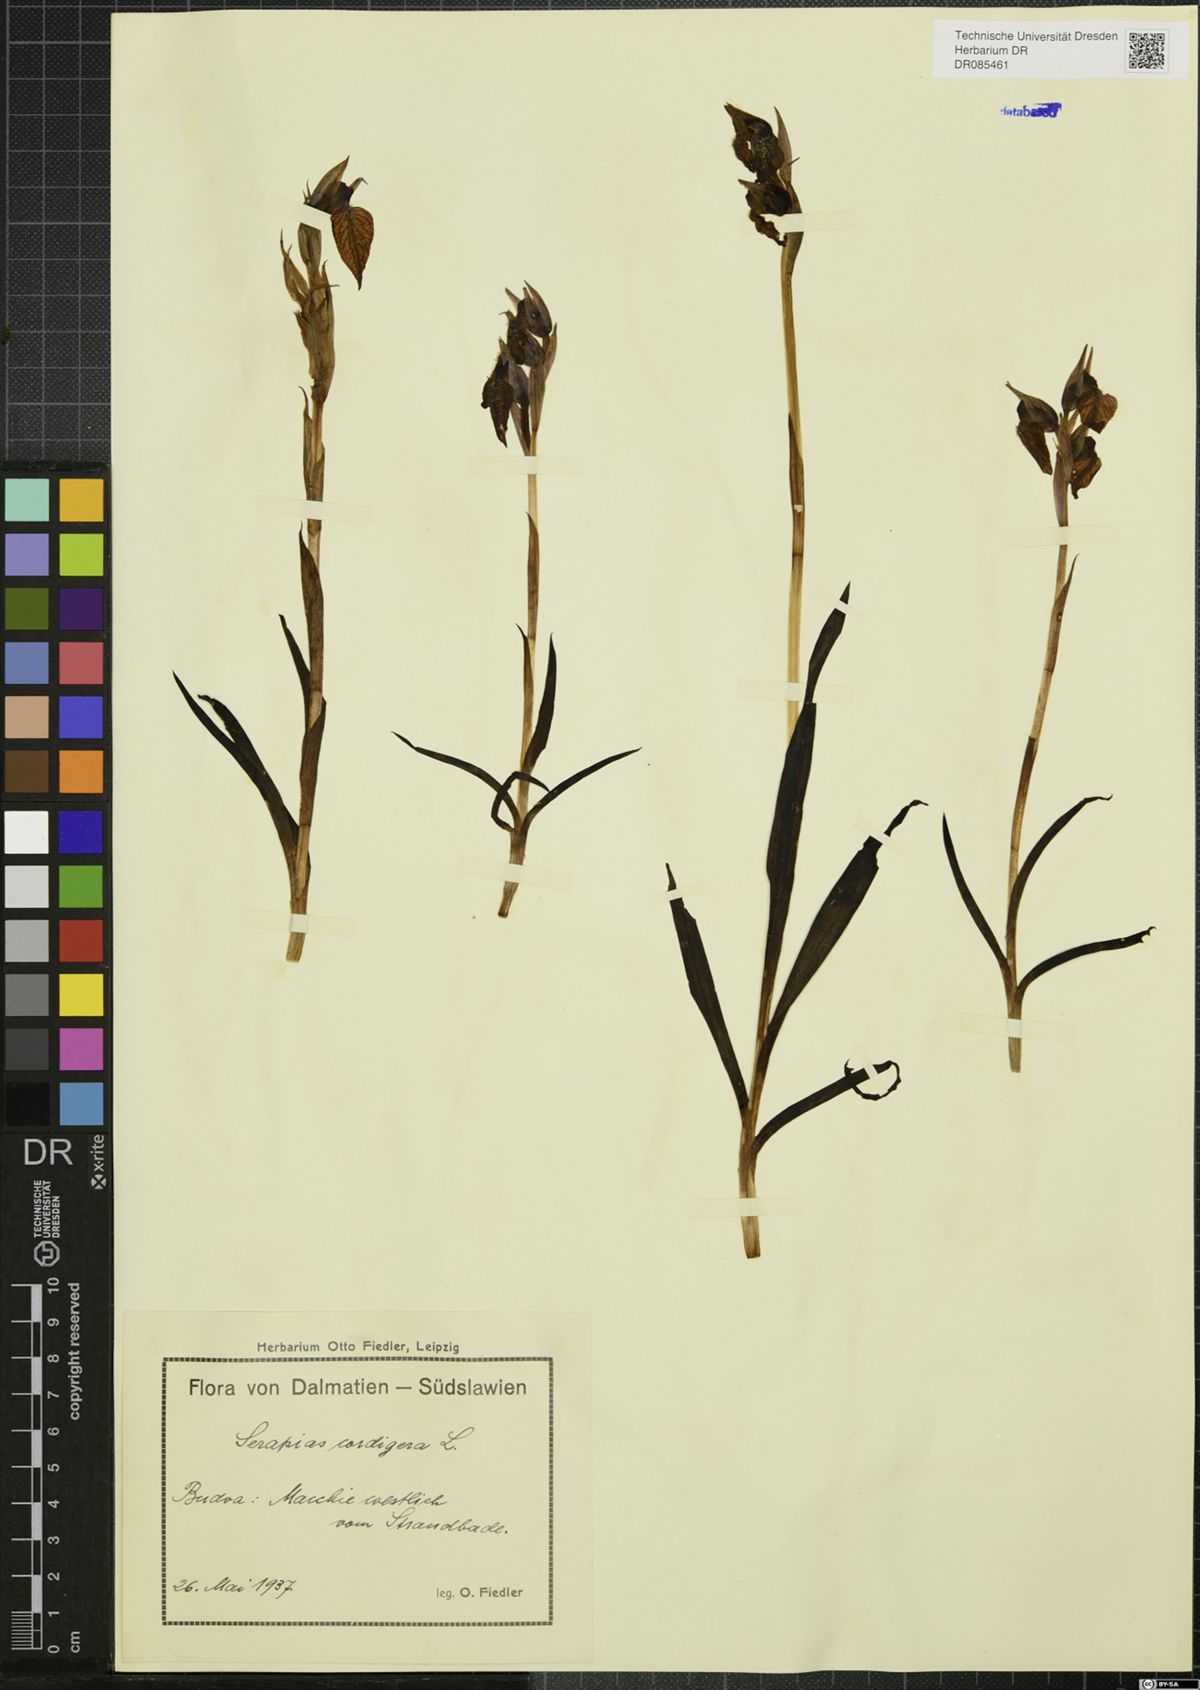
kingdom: Plantae
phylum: Tracheophyta
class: Liliopsida
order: Asparagales
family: Orchidaceae
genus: Serapias
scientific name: Serapias cordigera
